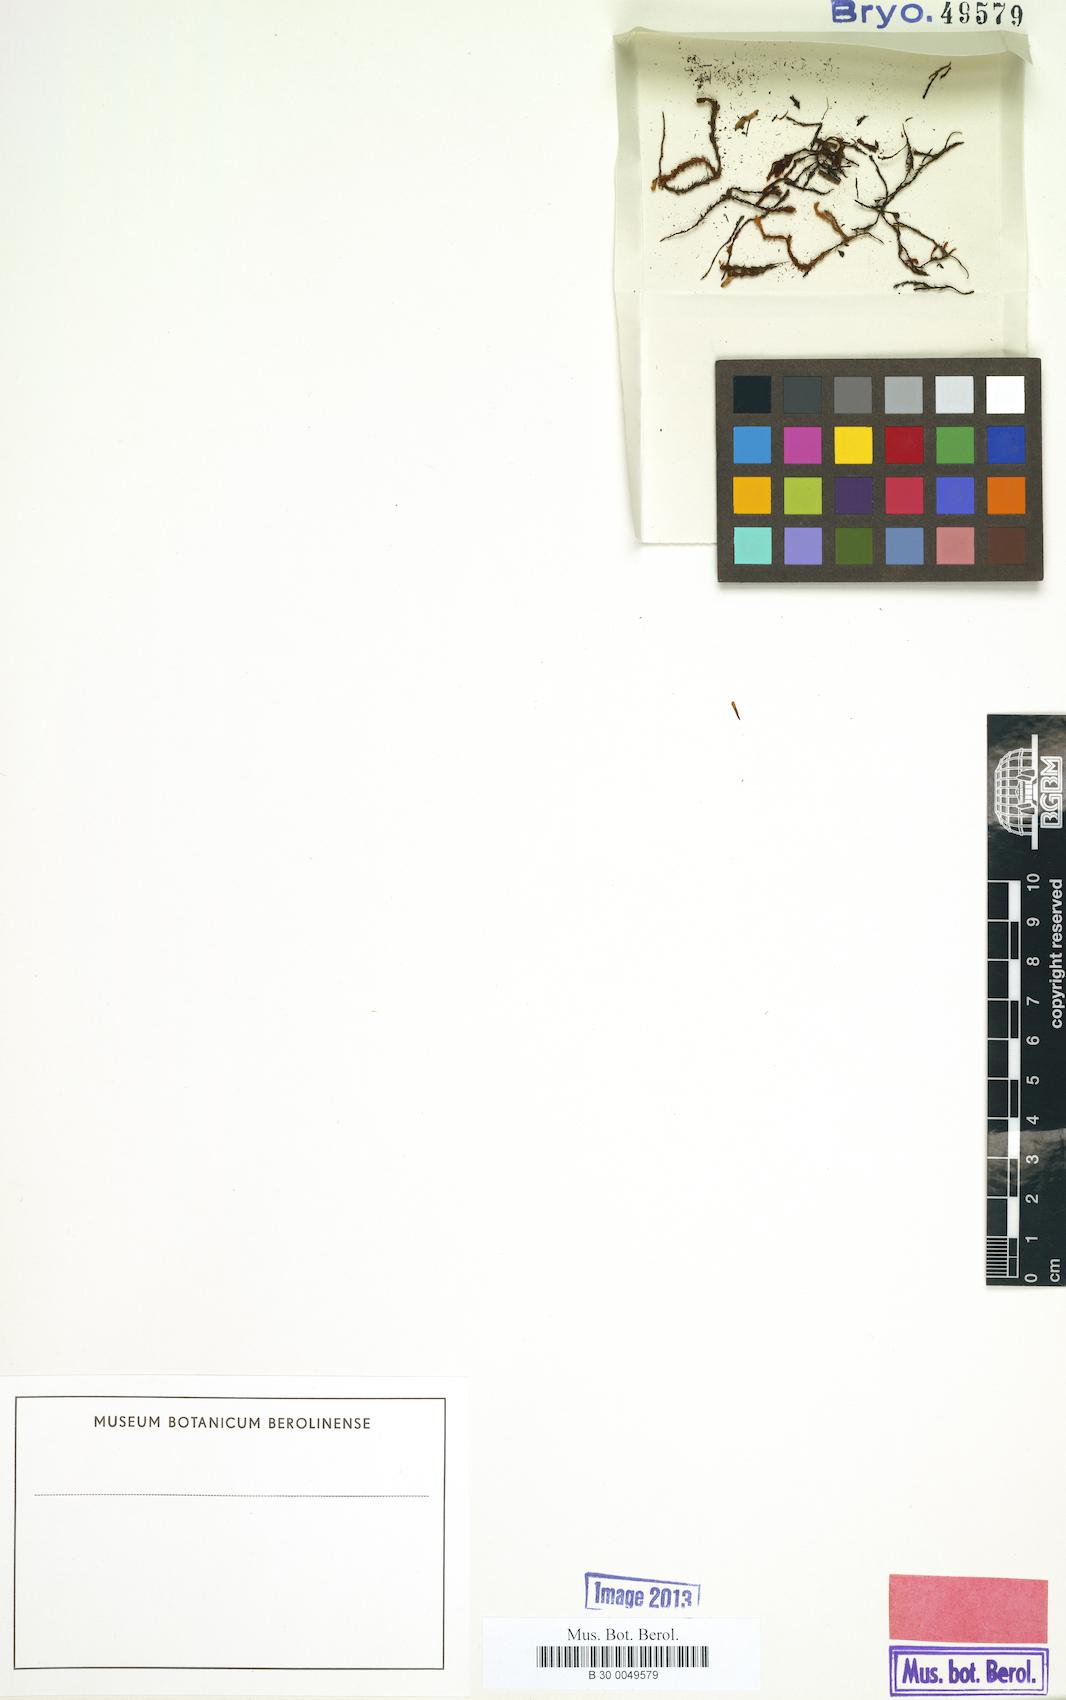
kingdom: Plantae
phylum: Bryophyta
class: Bryopsida
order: Pottiales
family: Pottiaceae
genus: Barbula
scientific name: Barbula subrufa
